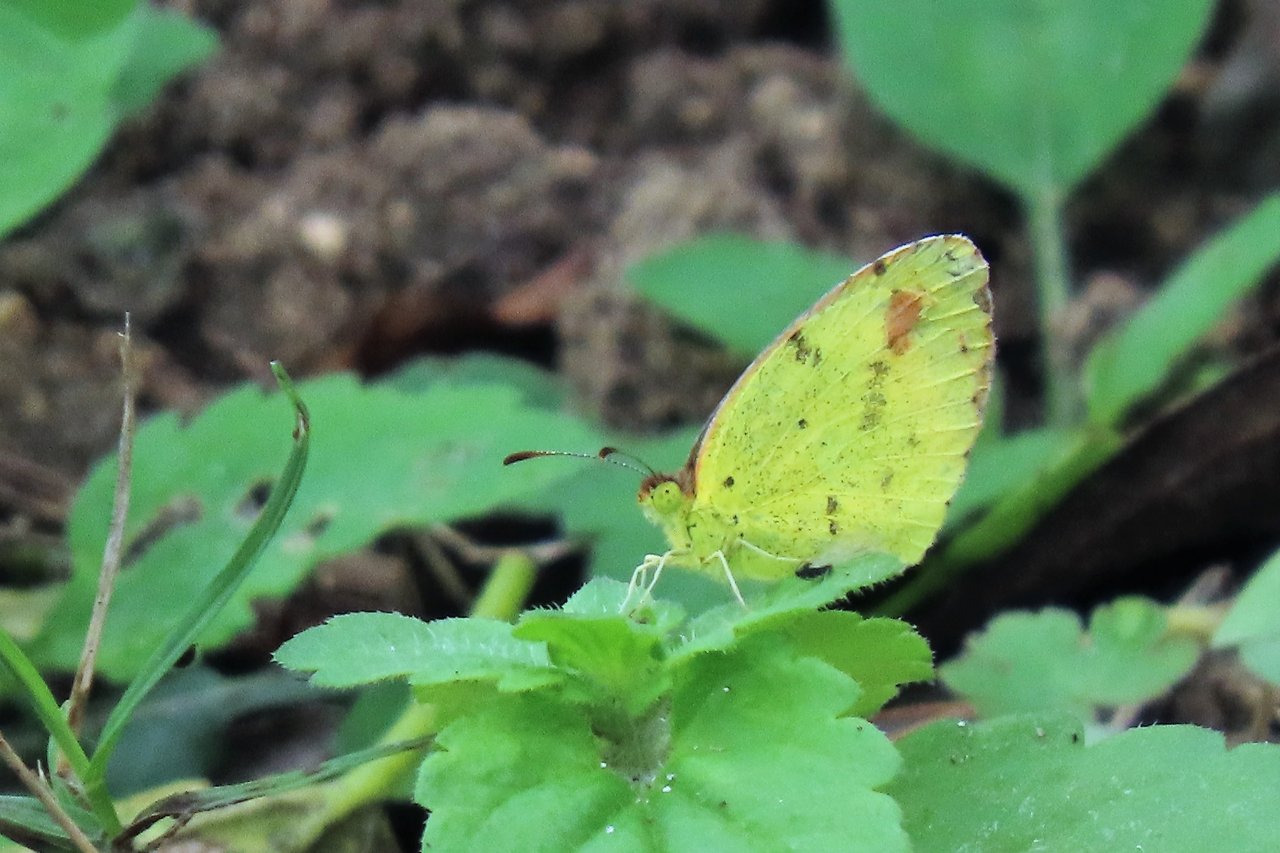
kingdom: Animalia
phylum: Arthropoda
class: Insecta
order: Lepidoptera
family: Pieridae
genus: Pyrisitia
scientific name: Pyrisitia lisa
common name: Little Yellow
